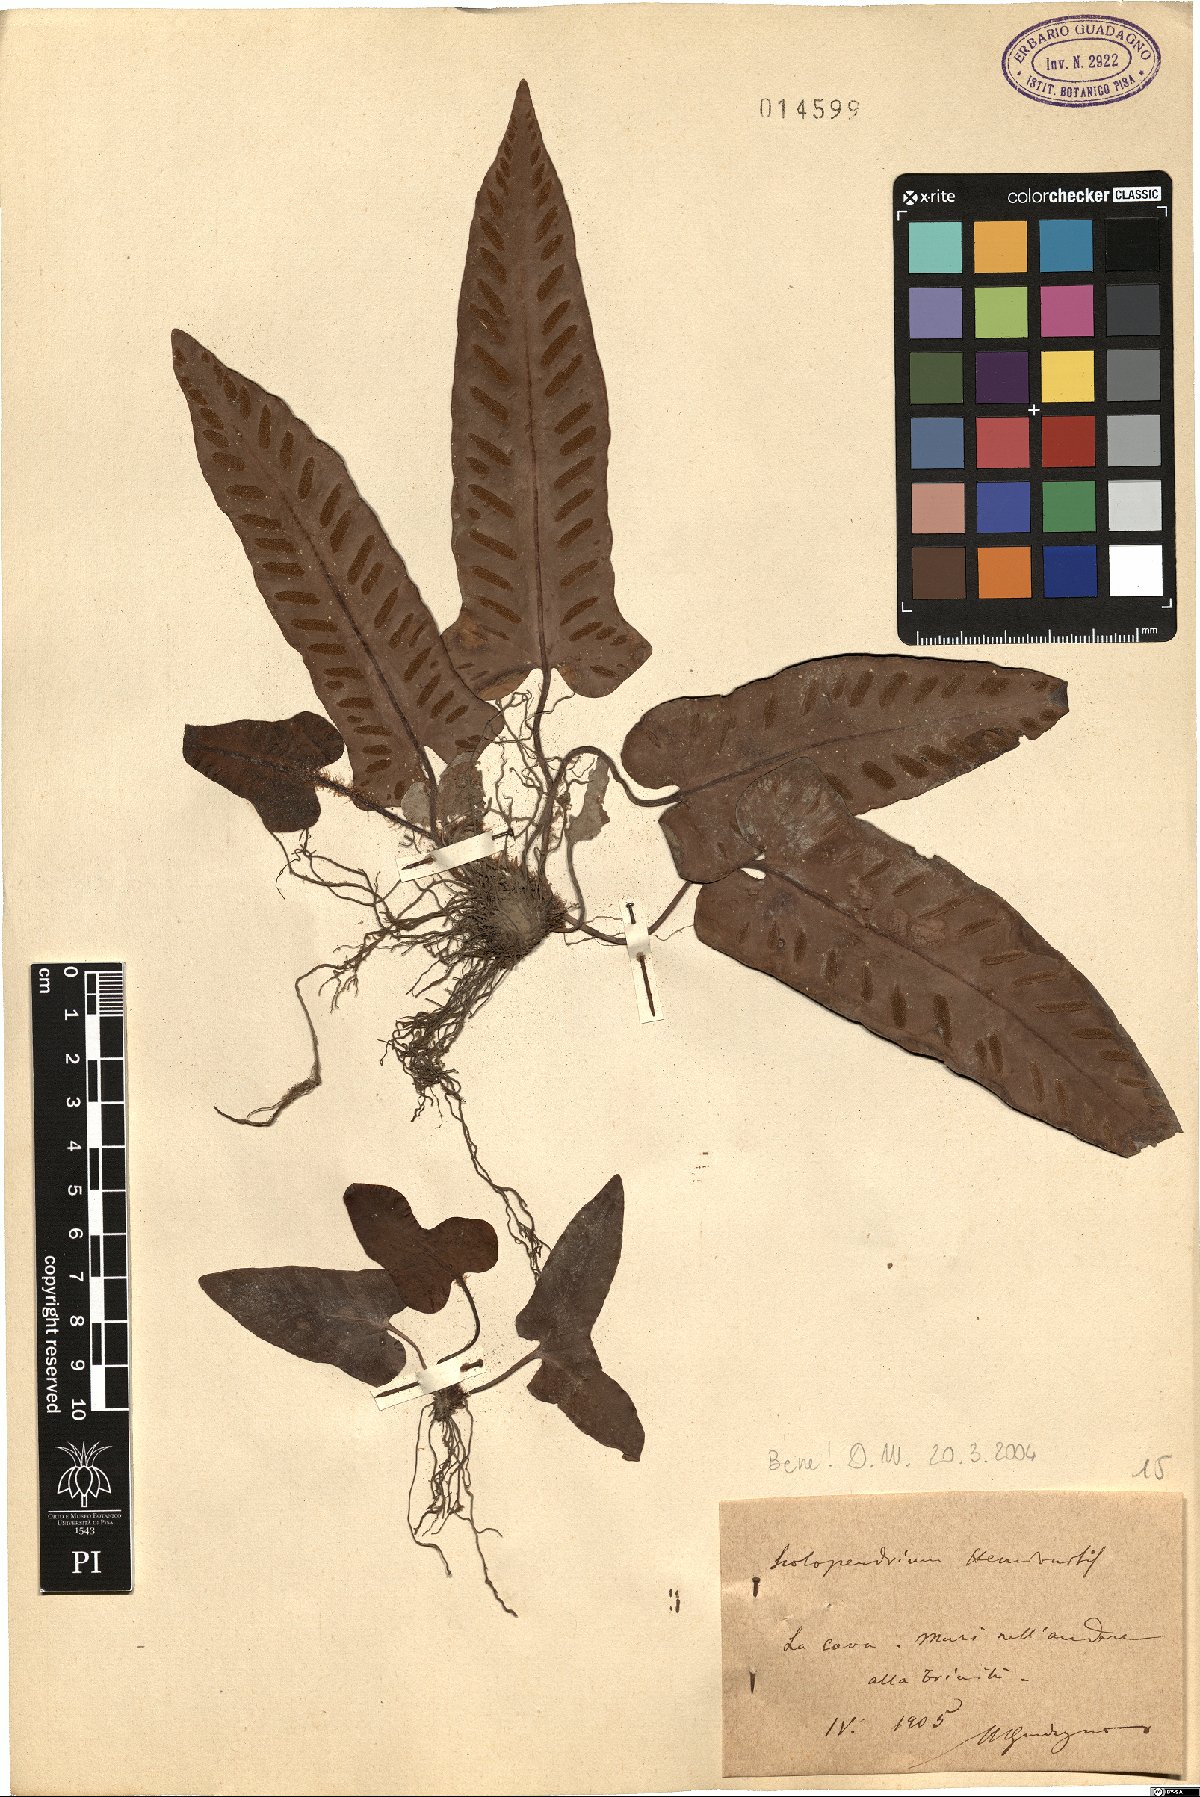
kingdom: Plantae
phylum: Tracheophyta
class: Polypodiopsida
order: Polypodiales
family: Aspleniaceae
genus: Asplenium
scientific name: Asplenium sagittatum
